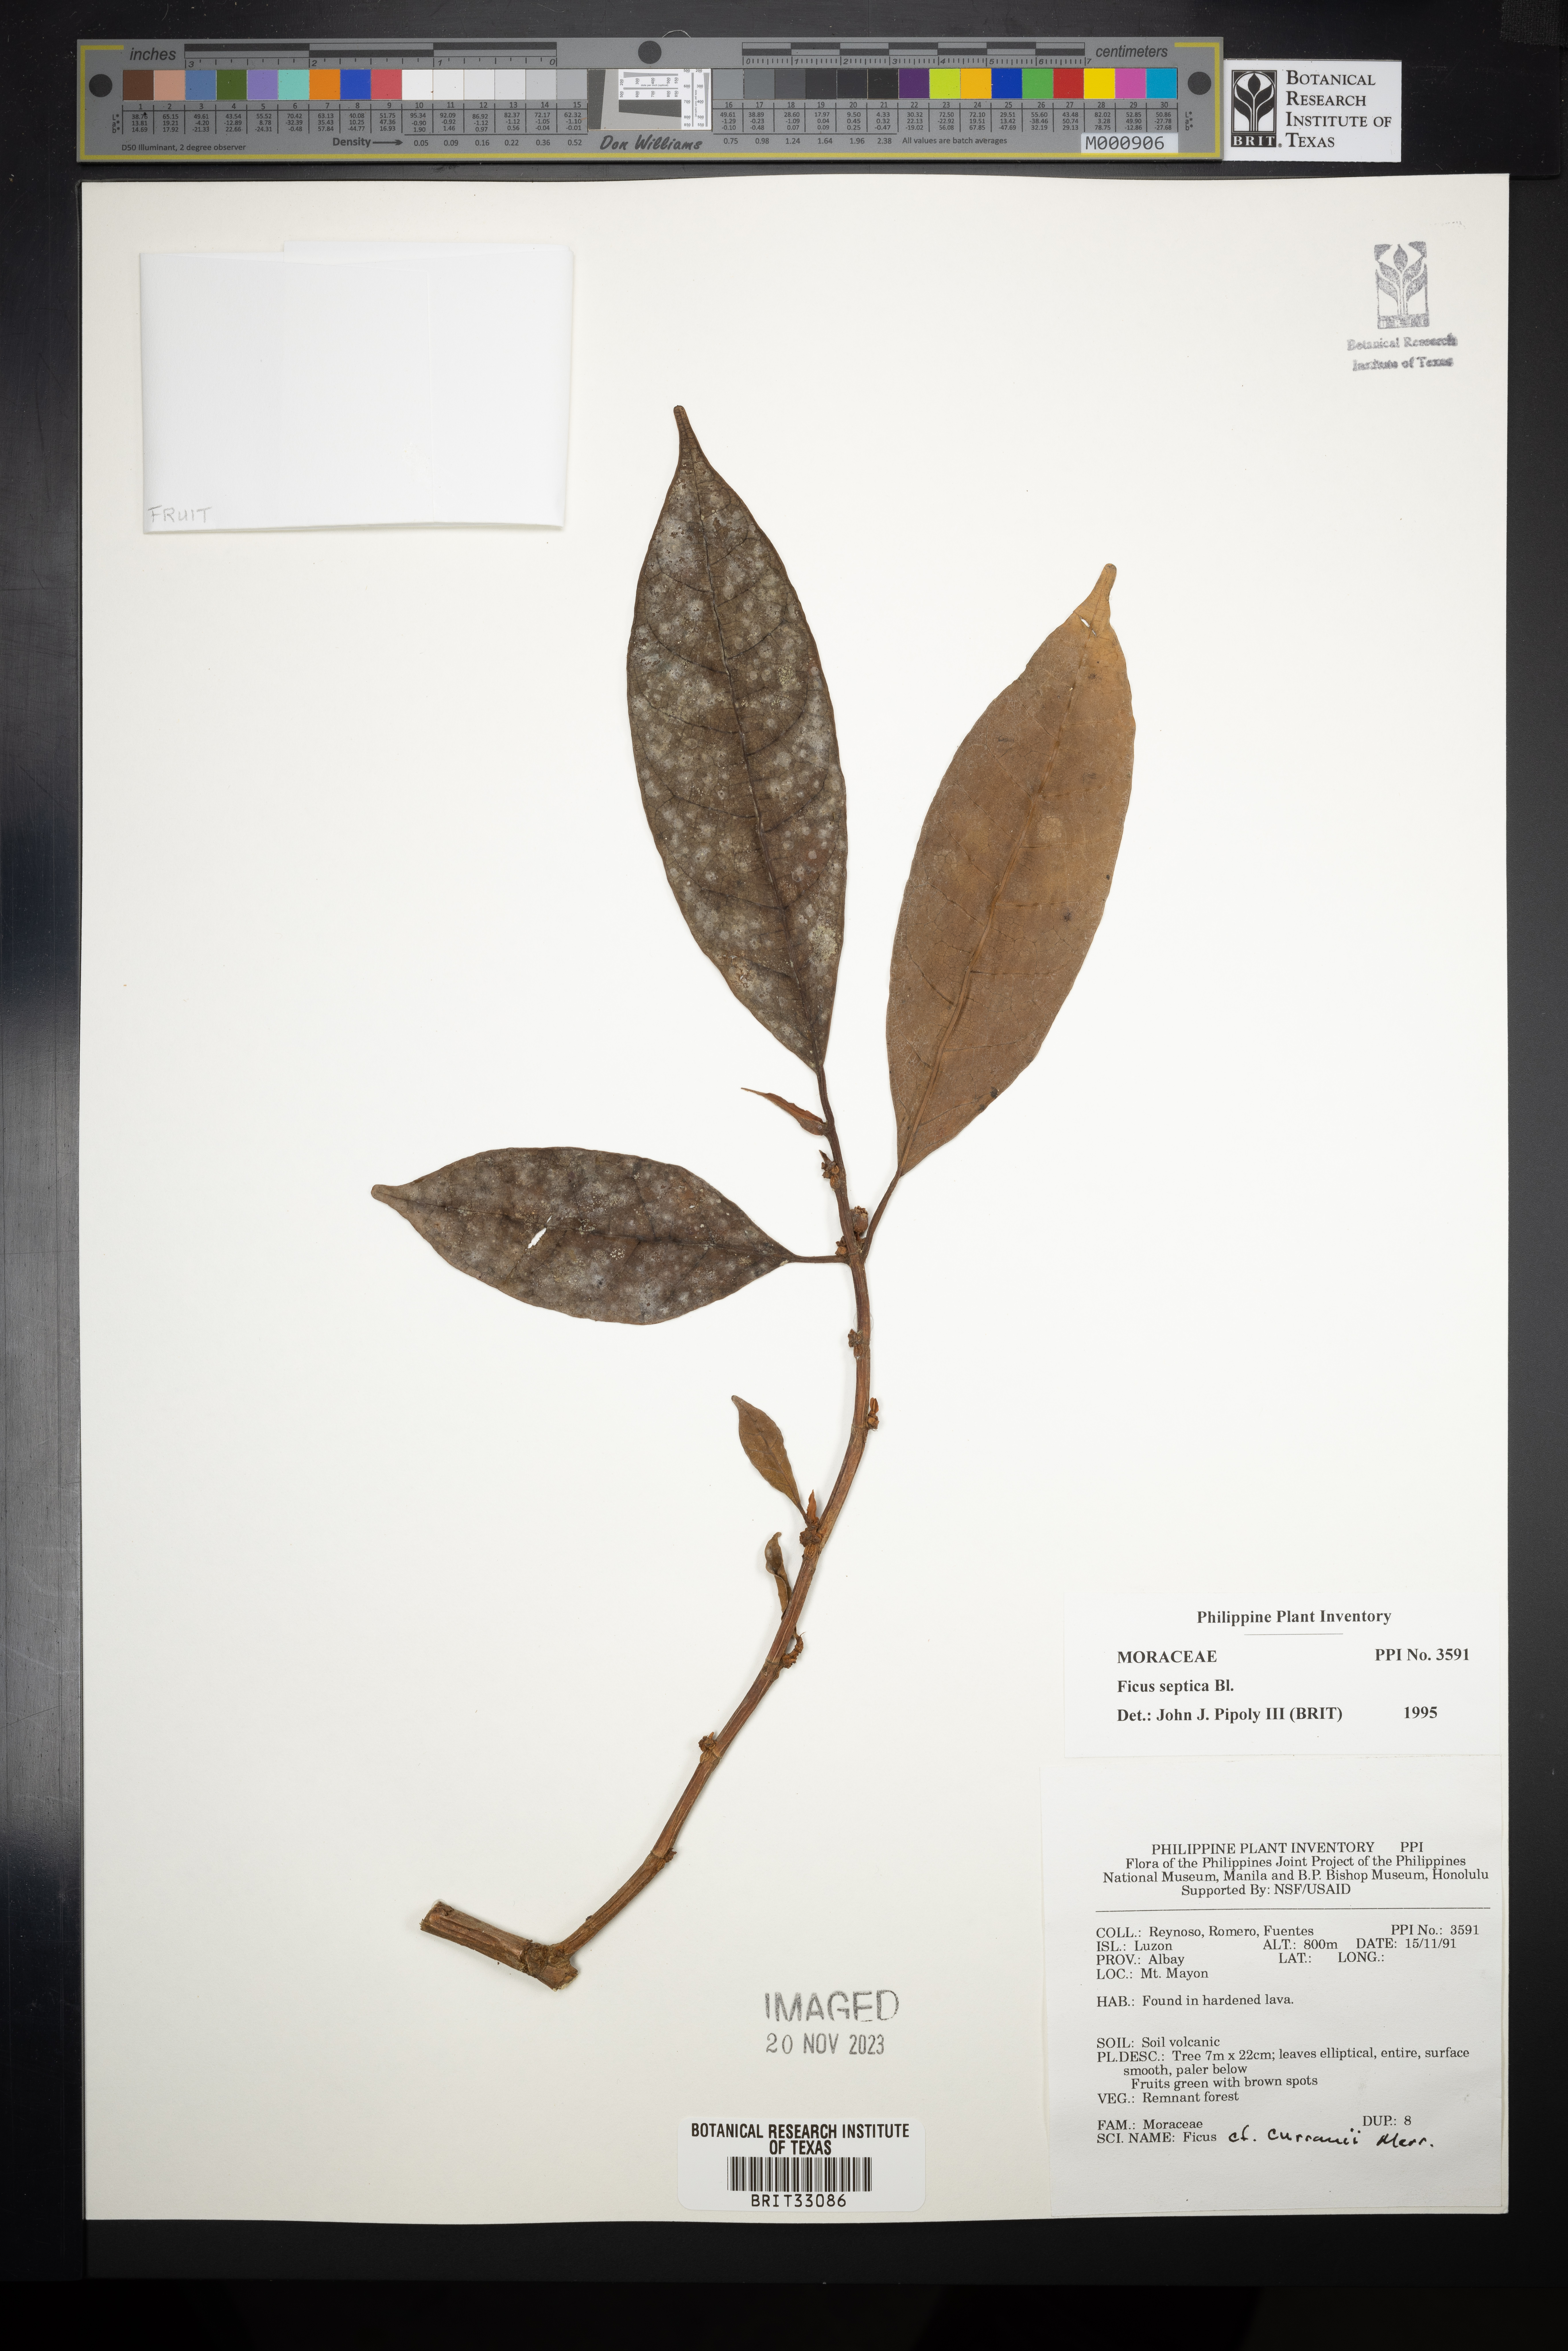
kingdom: Plantae
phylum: Tracheophyta
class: Magnoliopsida
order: Rosales
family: Moraceae
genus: Ficus
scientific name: Ficus septica
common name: Septic fig
